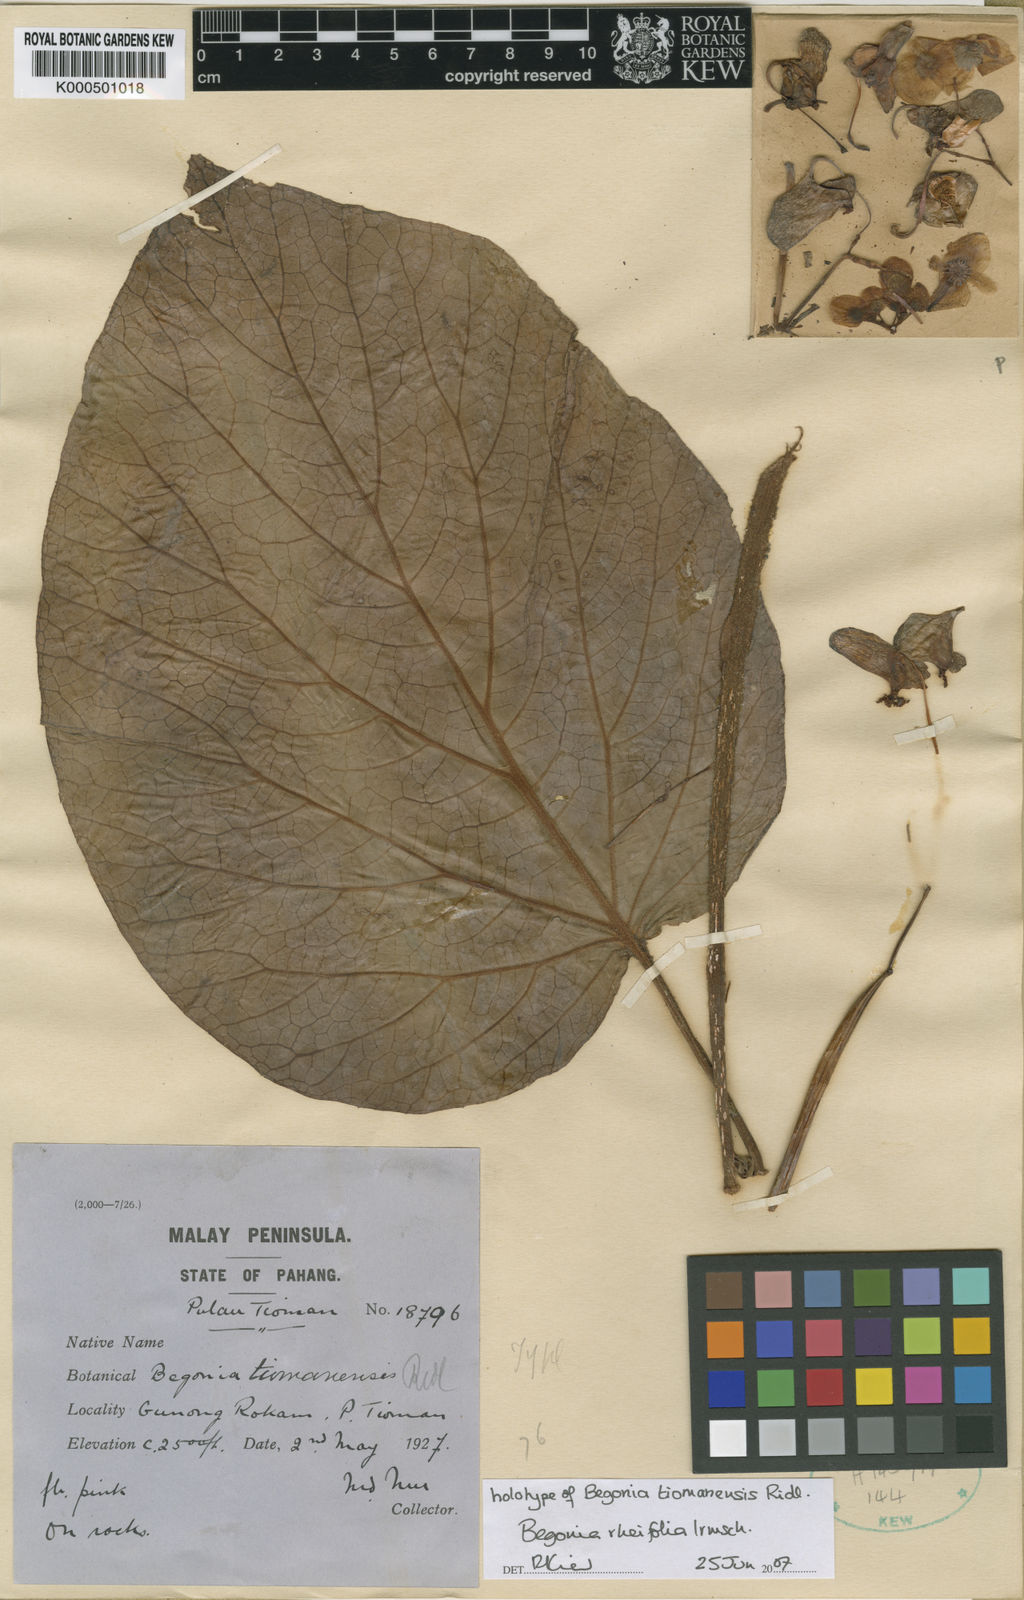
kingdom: Plantae
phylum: Tracheophyta
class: Magnoliopsida
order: Cucurbitales
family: Begoniaceae
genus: Begonia
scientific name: Begonia rheifolia
